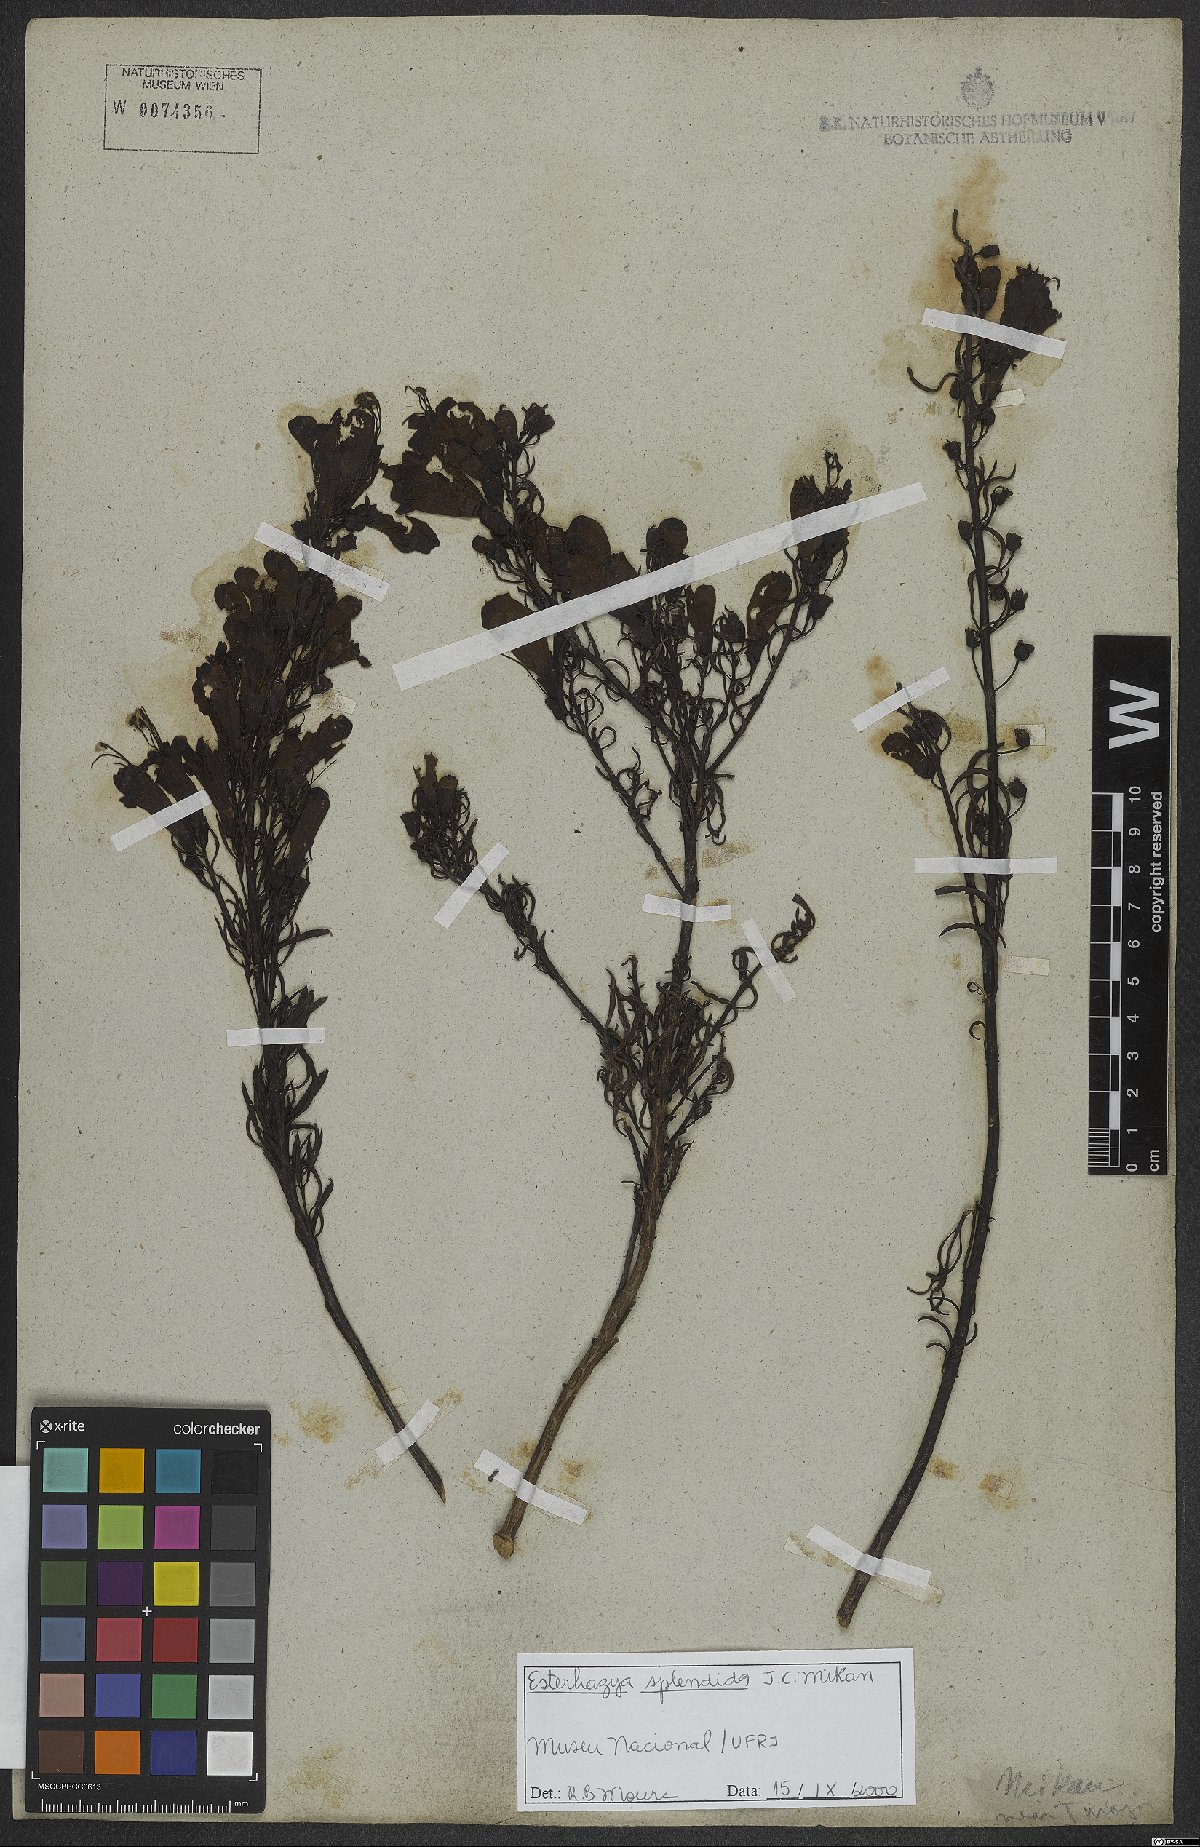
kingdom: Plantae
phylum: Tracheophyta
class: Magnoliopsida
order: Lamiales
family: Orobanchaceae
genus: Esterhazya
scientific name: Esterhazya splendida
